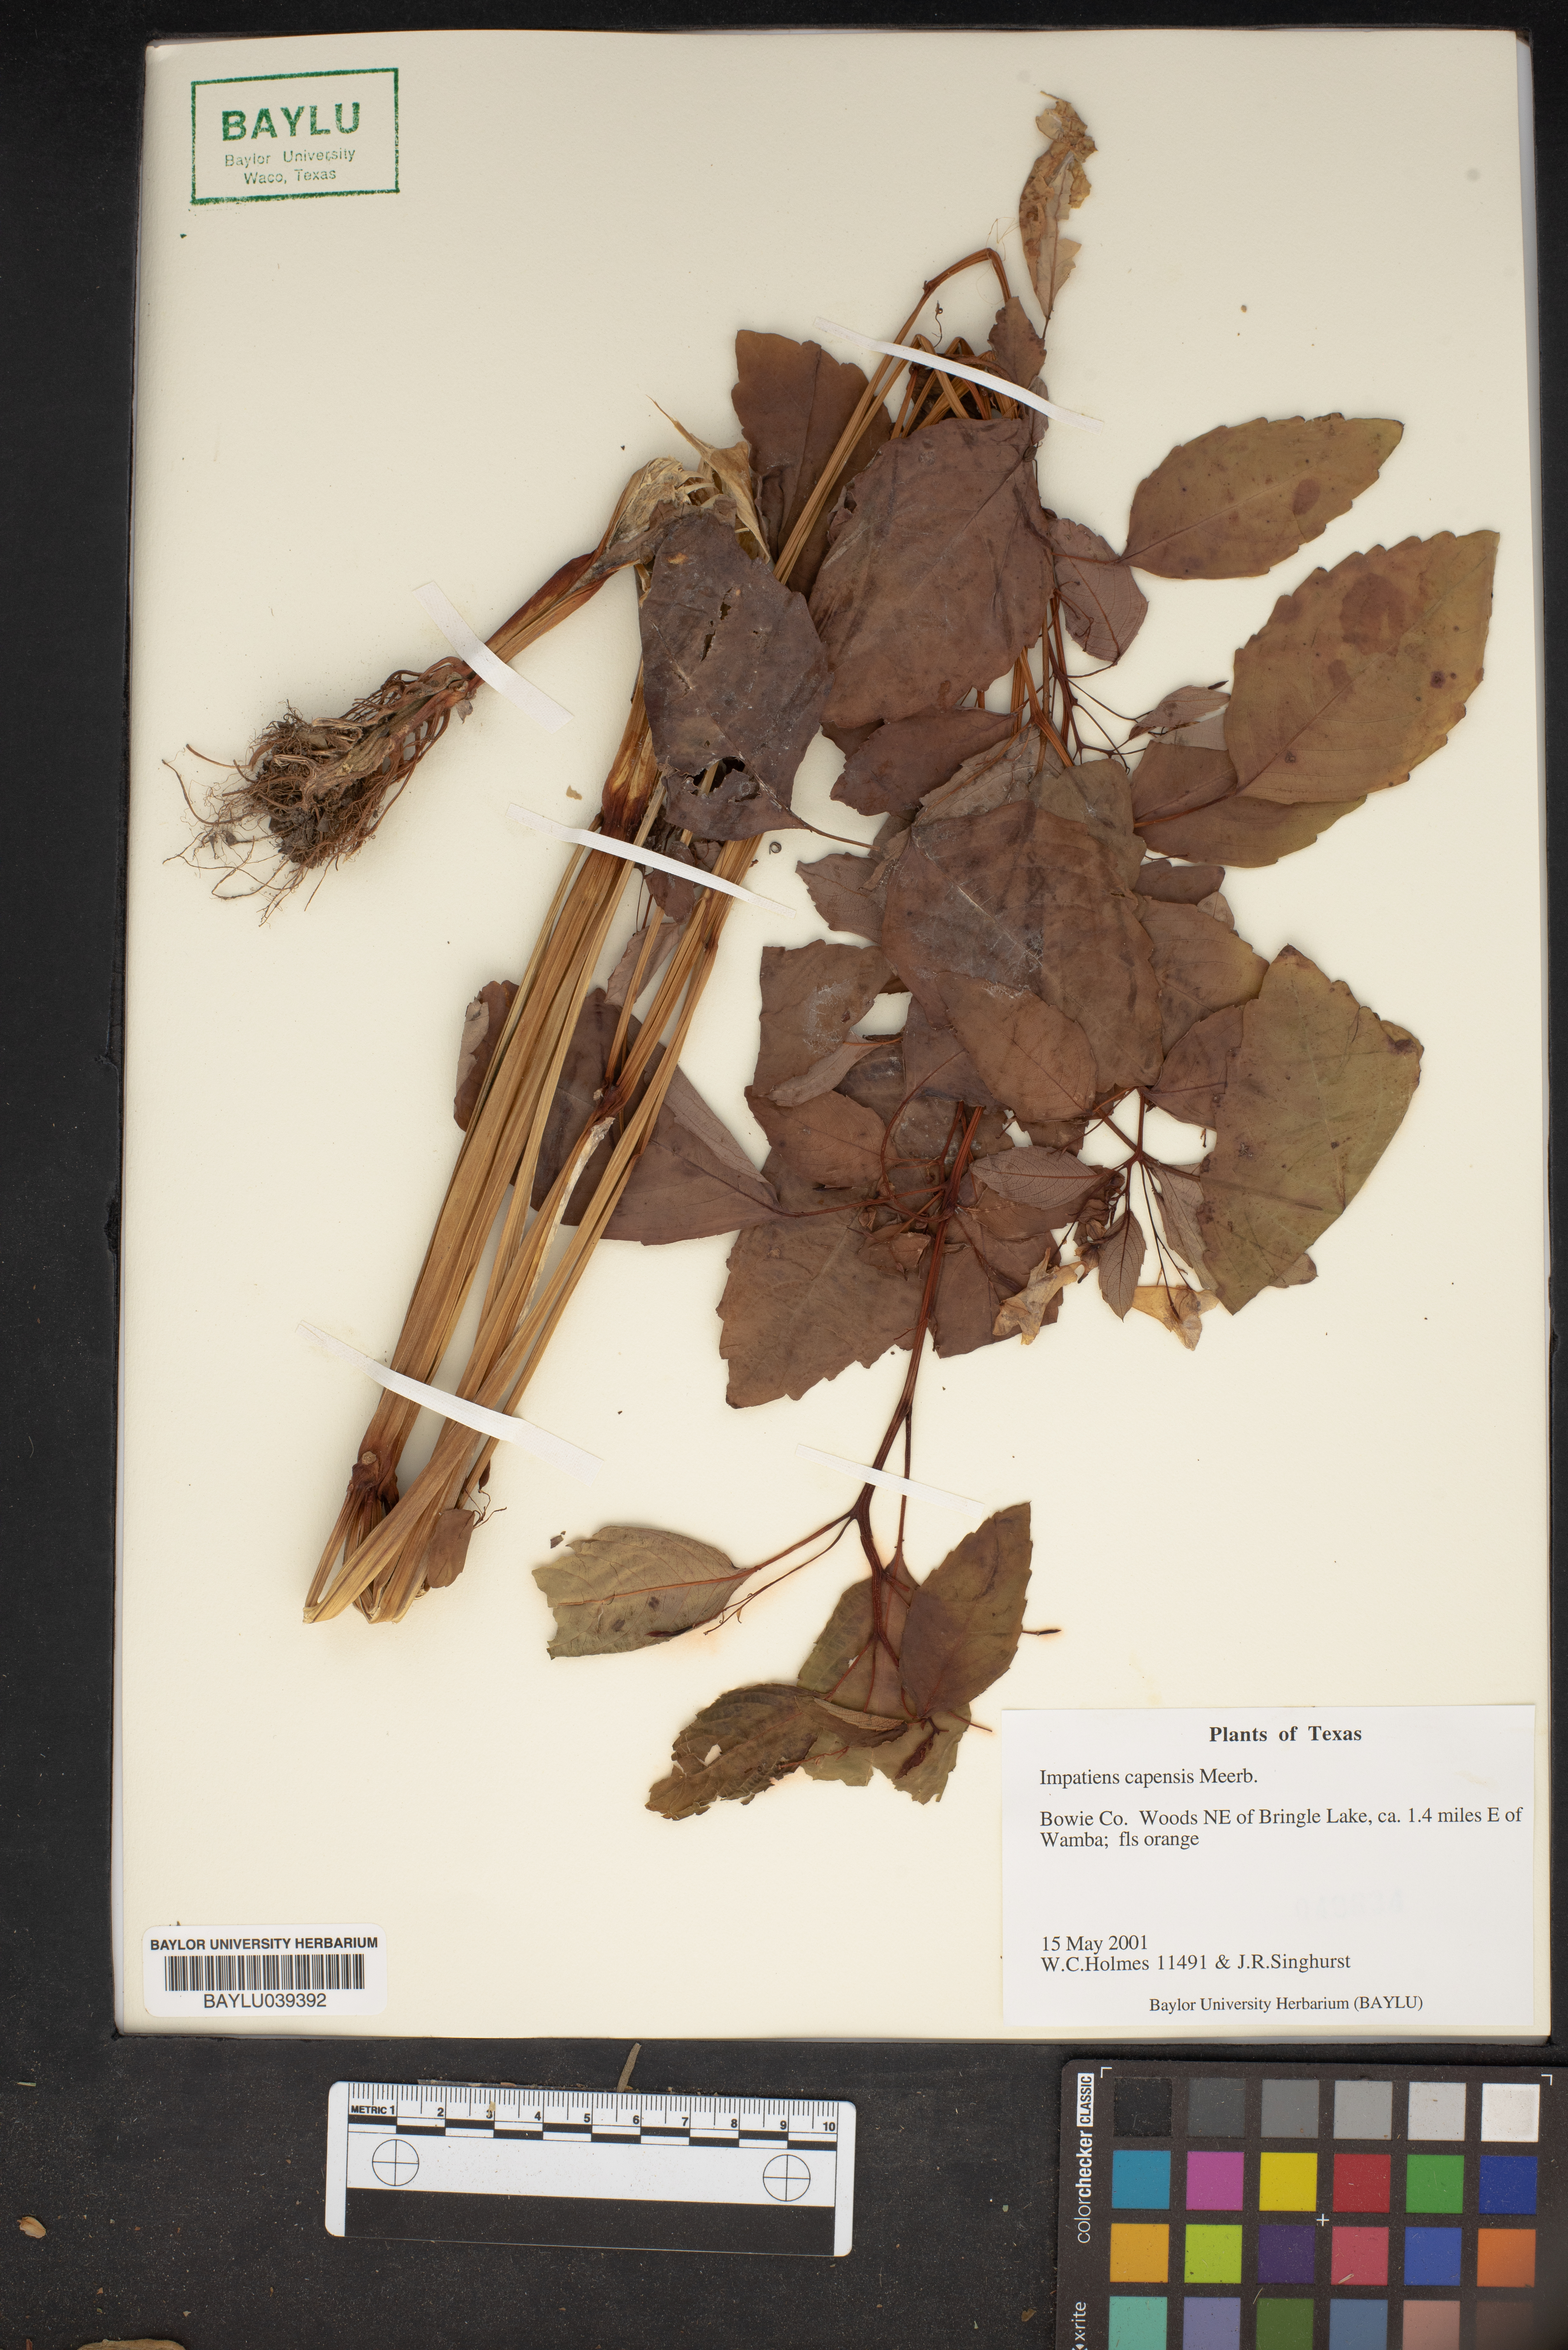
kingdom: Plantae
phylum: Tracheophyta
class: Magnoliopsida
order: Ericales
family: Balsaminaceae
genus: Impatiens
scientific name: Impatiens capensis
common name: Orange balsam
